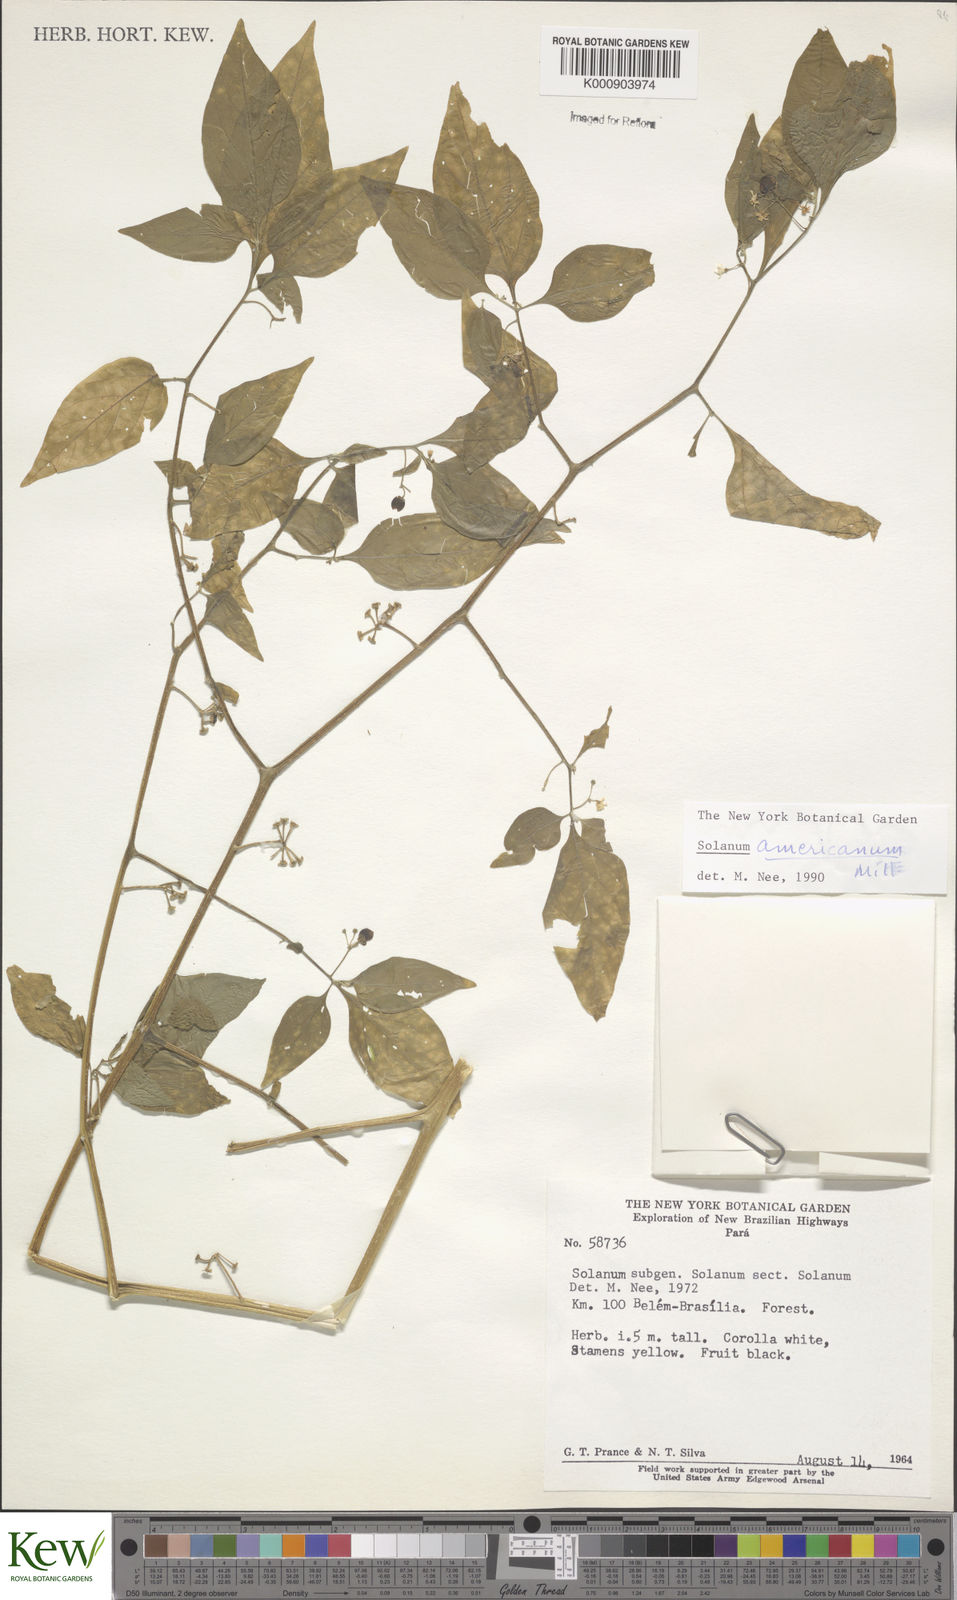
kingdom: Plantae
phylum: Tracheophyta
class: Magnoliopsida
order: Solanales
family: Solanaceae
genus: Solanum
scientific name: Solanum americanum
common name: American black nightshade
